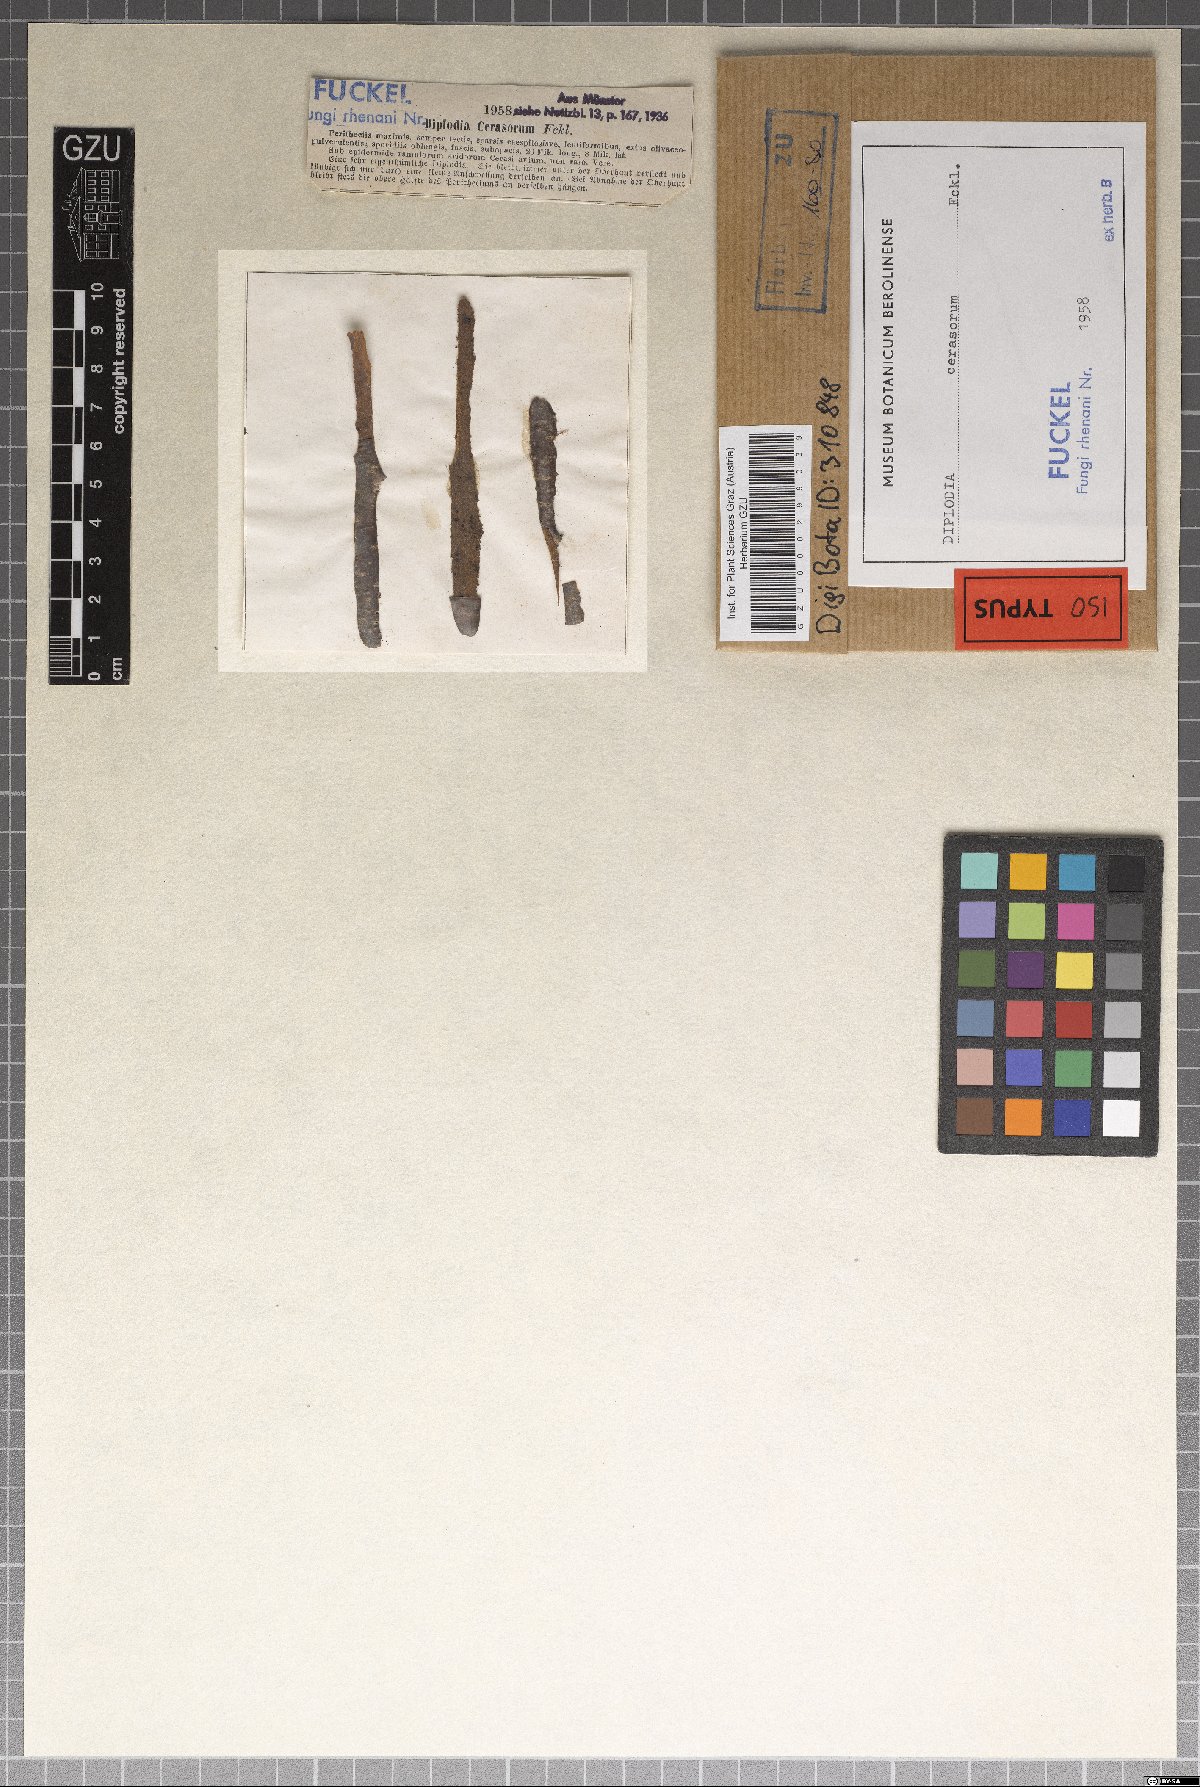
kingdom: Fungi
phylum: Ascomycota
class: Dothideomycetes
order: Botryosphaeriales
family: Botryosphaeriaceae
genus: Diplodia
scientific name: Diplodia cesarorum
